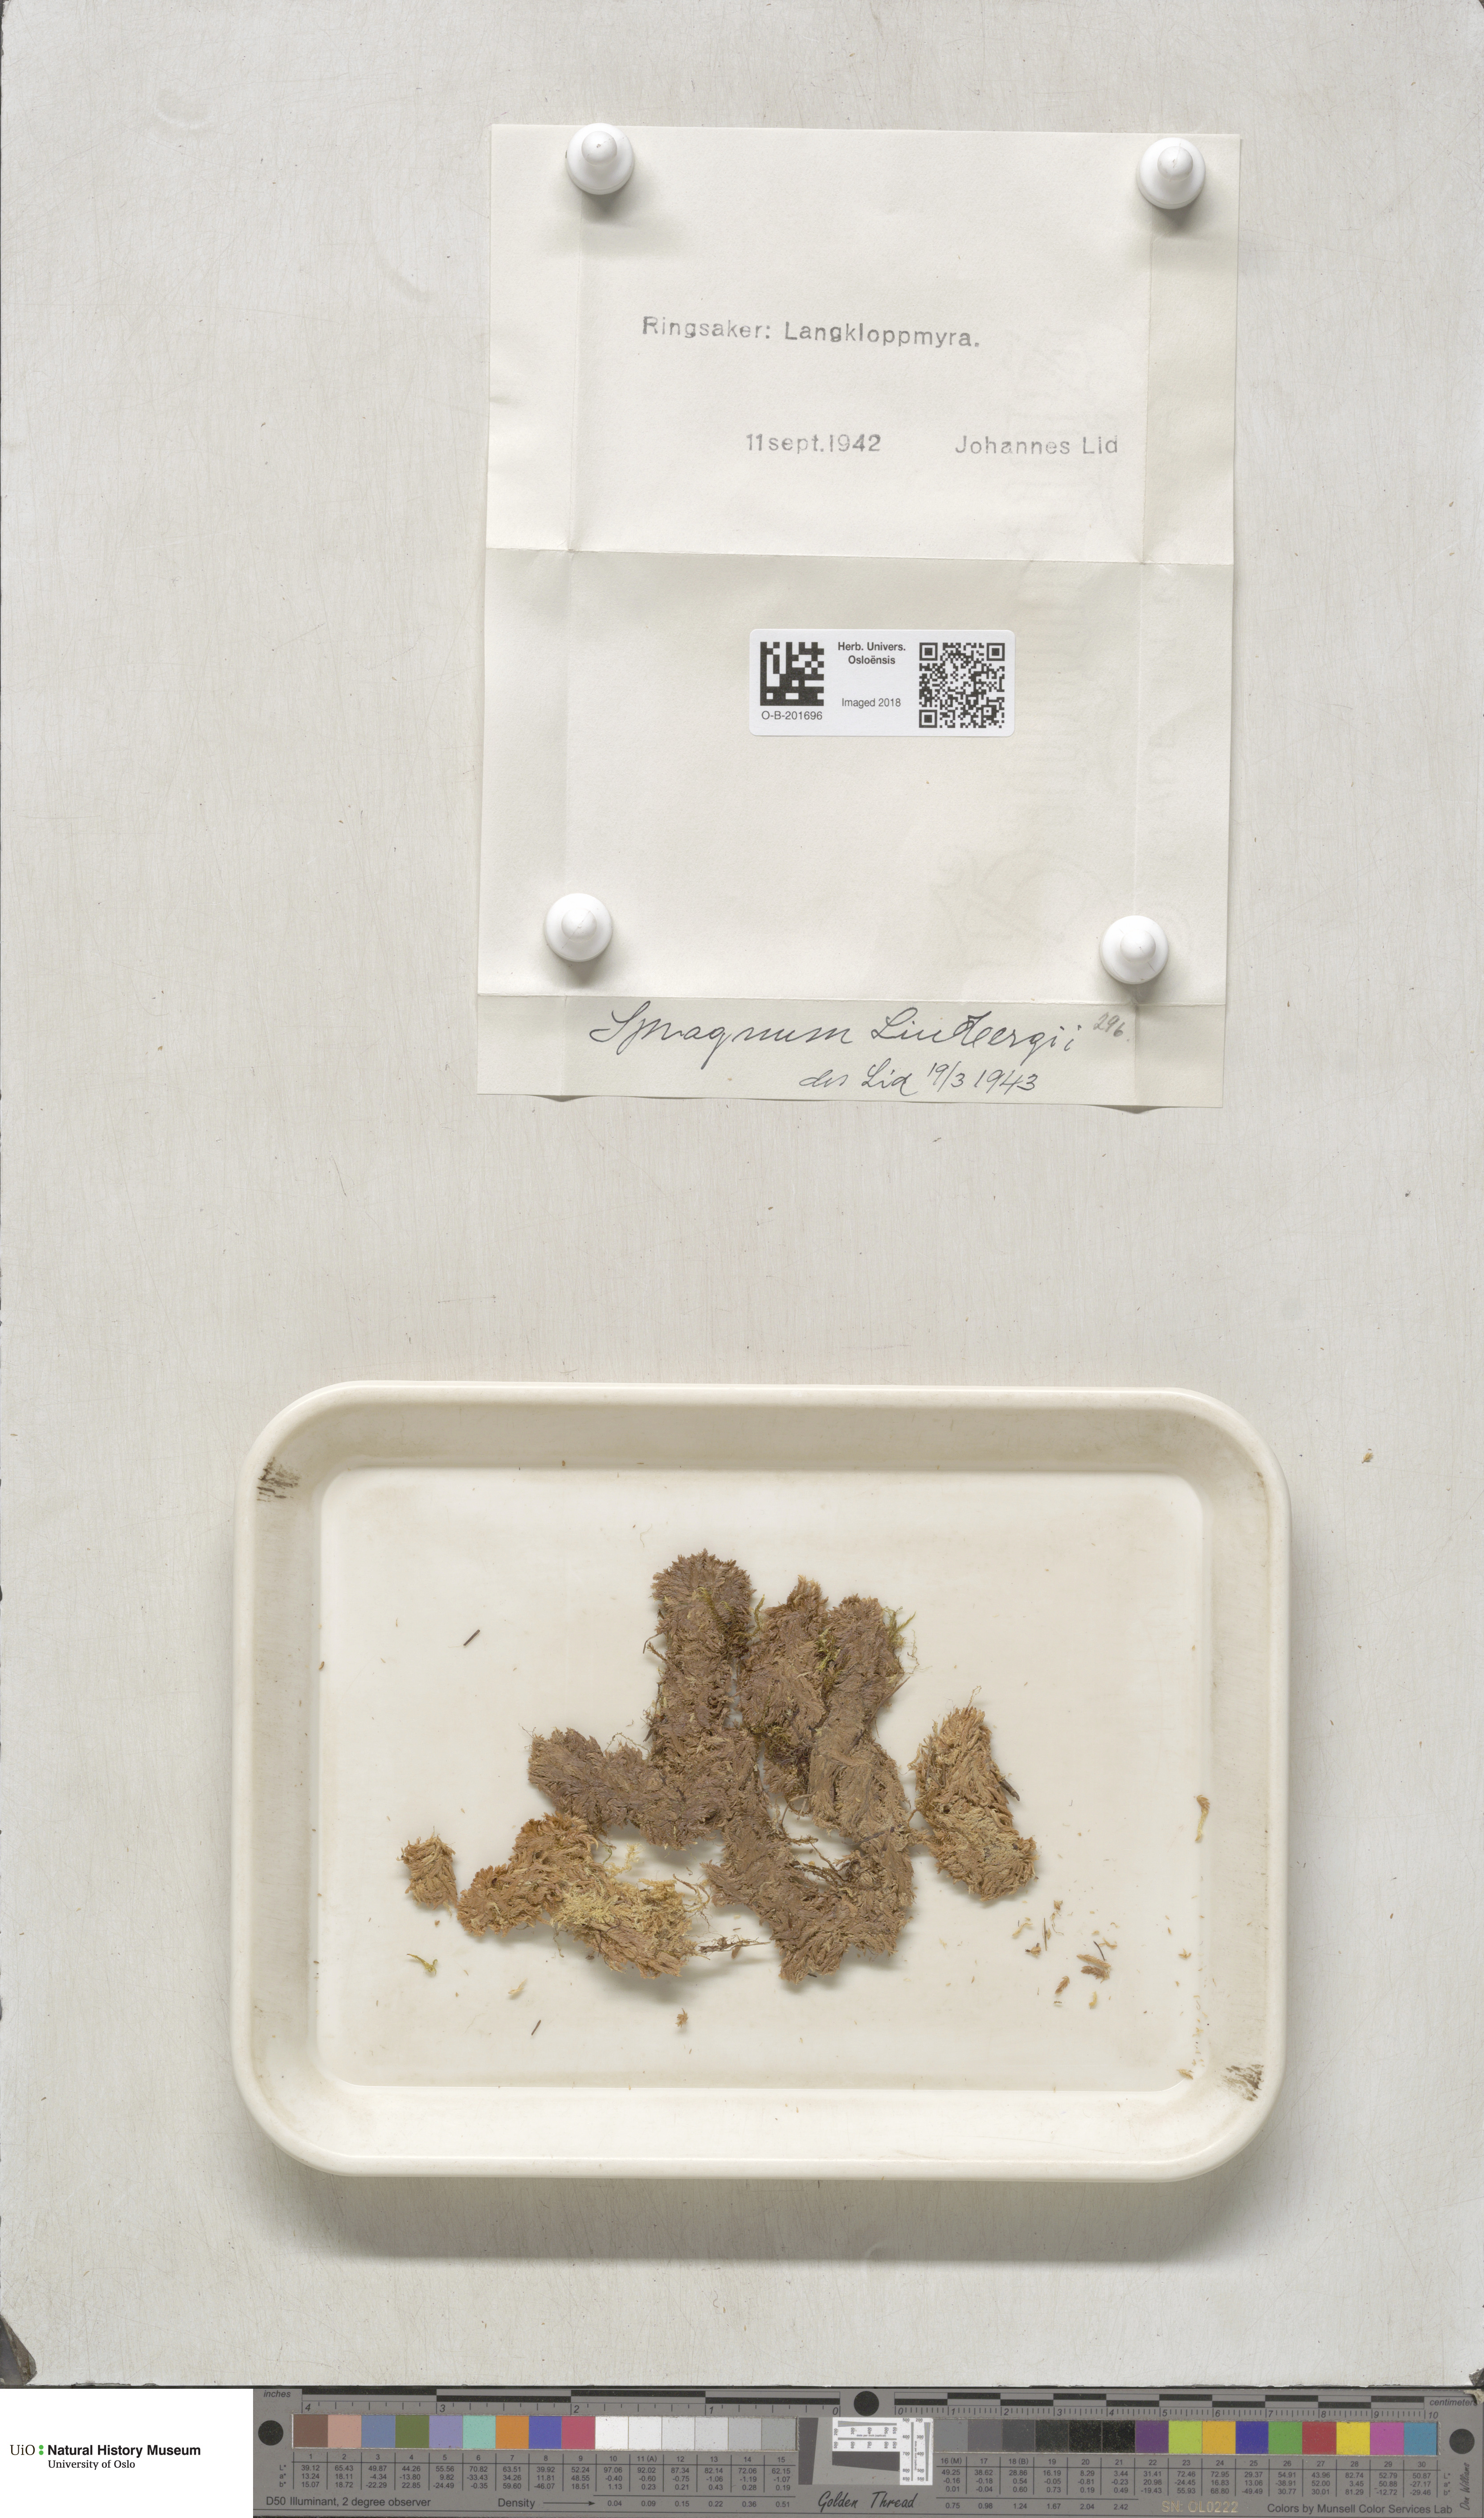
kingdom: Plantae
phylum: Bryophyta
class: Sphagnopsida
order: Sphagnales
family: Sphagnaceae
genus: Sphagnum
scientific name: Sphagnum lindbergii
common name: Lindberg's peat moss
